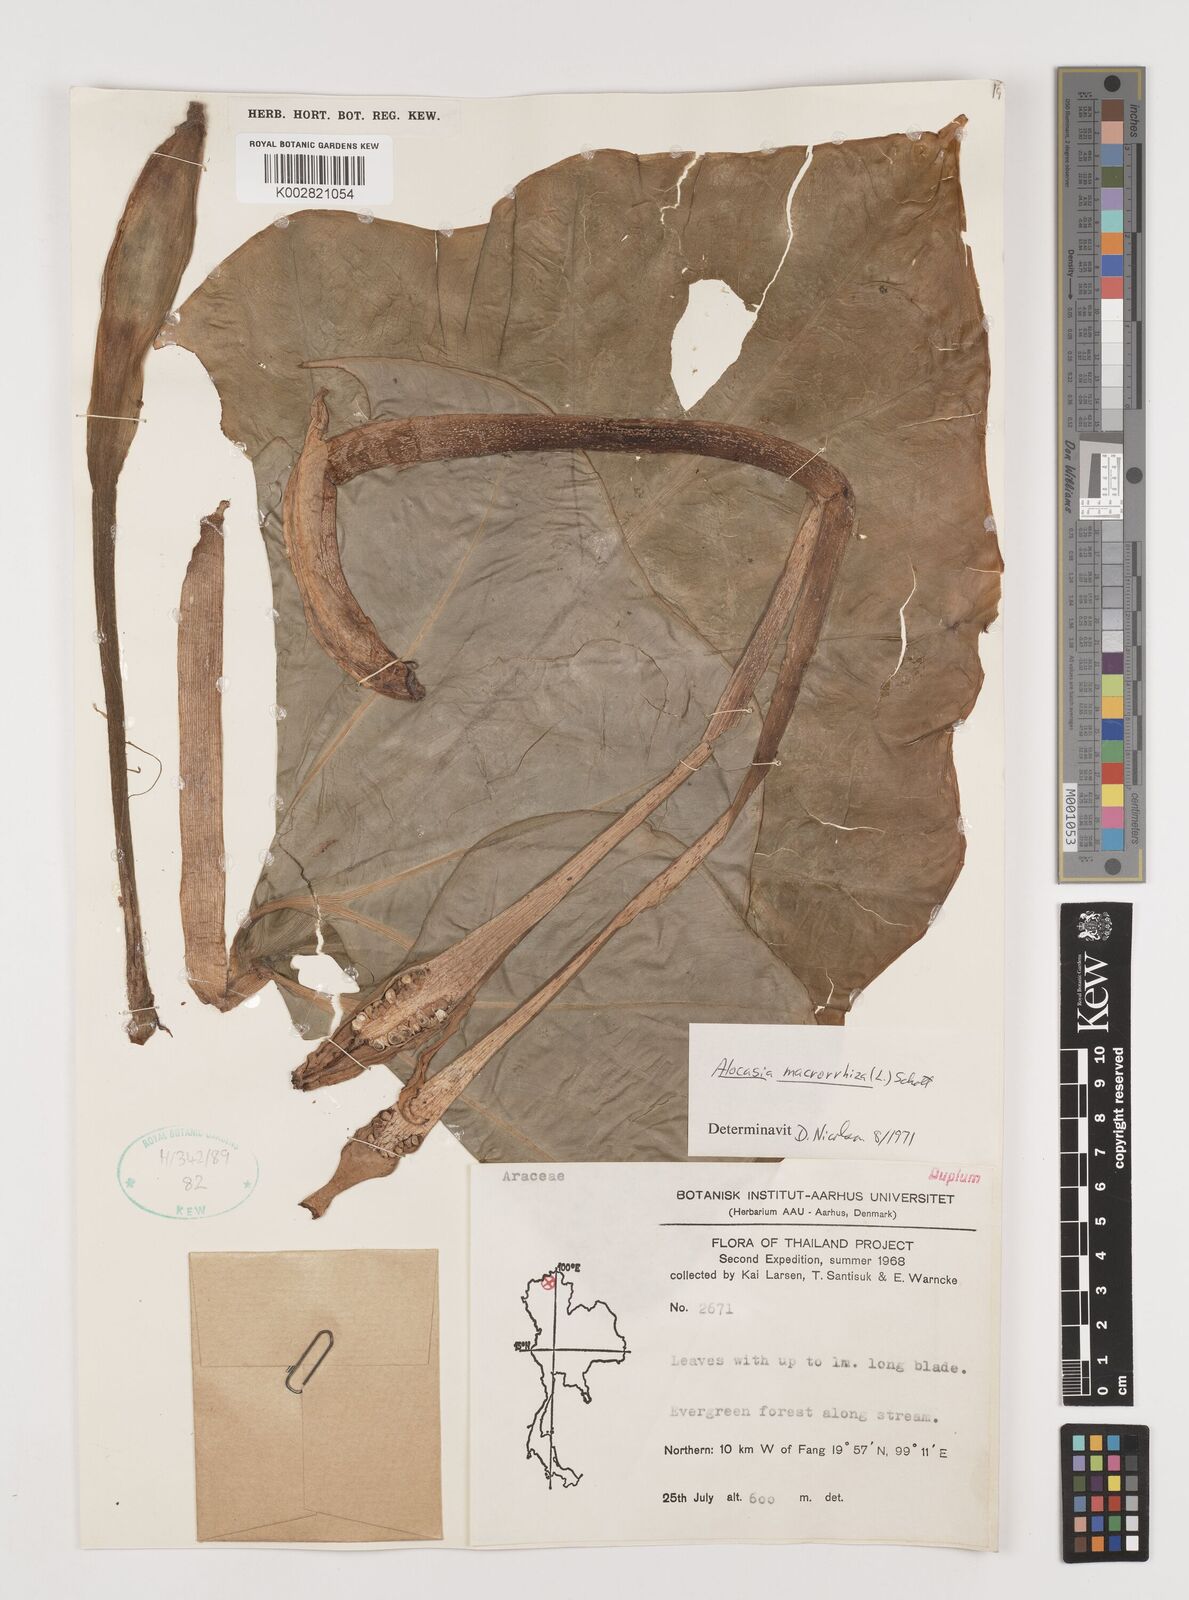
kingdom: Plantae
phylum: Tracheophyta
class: Liliopsida
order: Alismatales
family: Araceae
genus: Alocasia
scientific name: Alocasia macrorrhizos
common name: Giant taro
